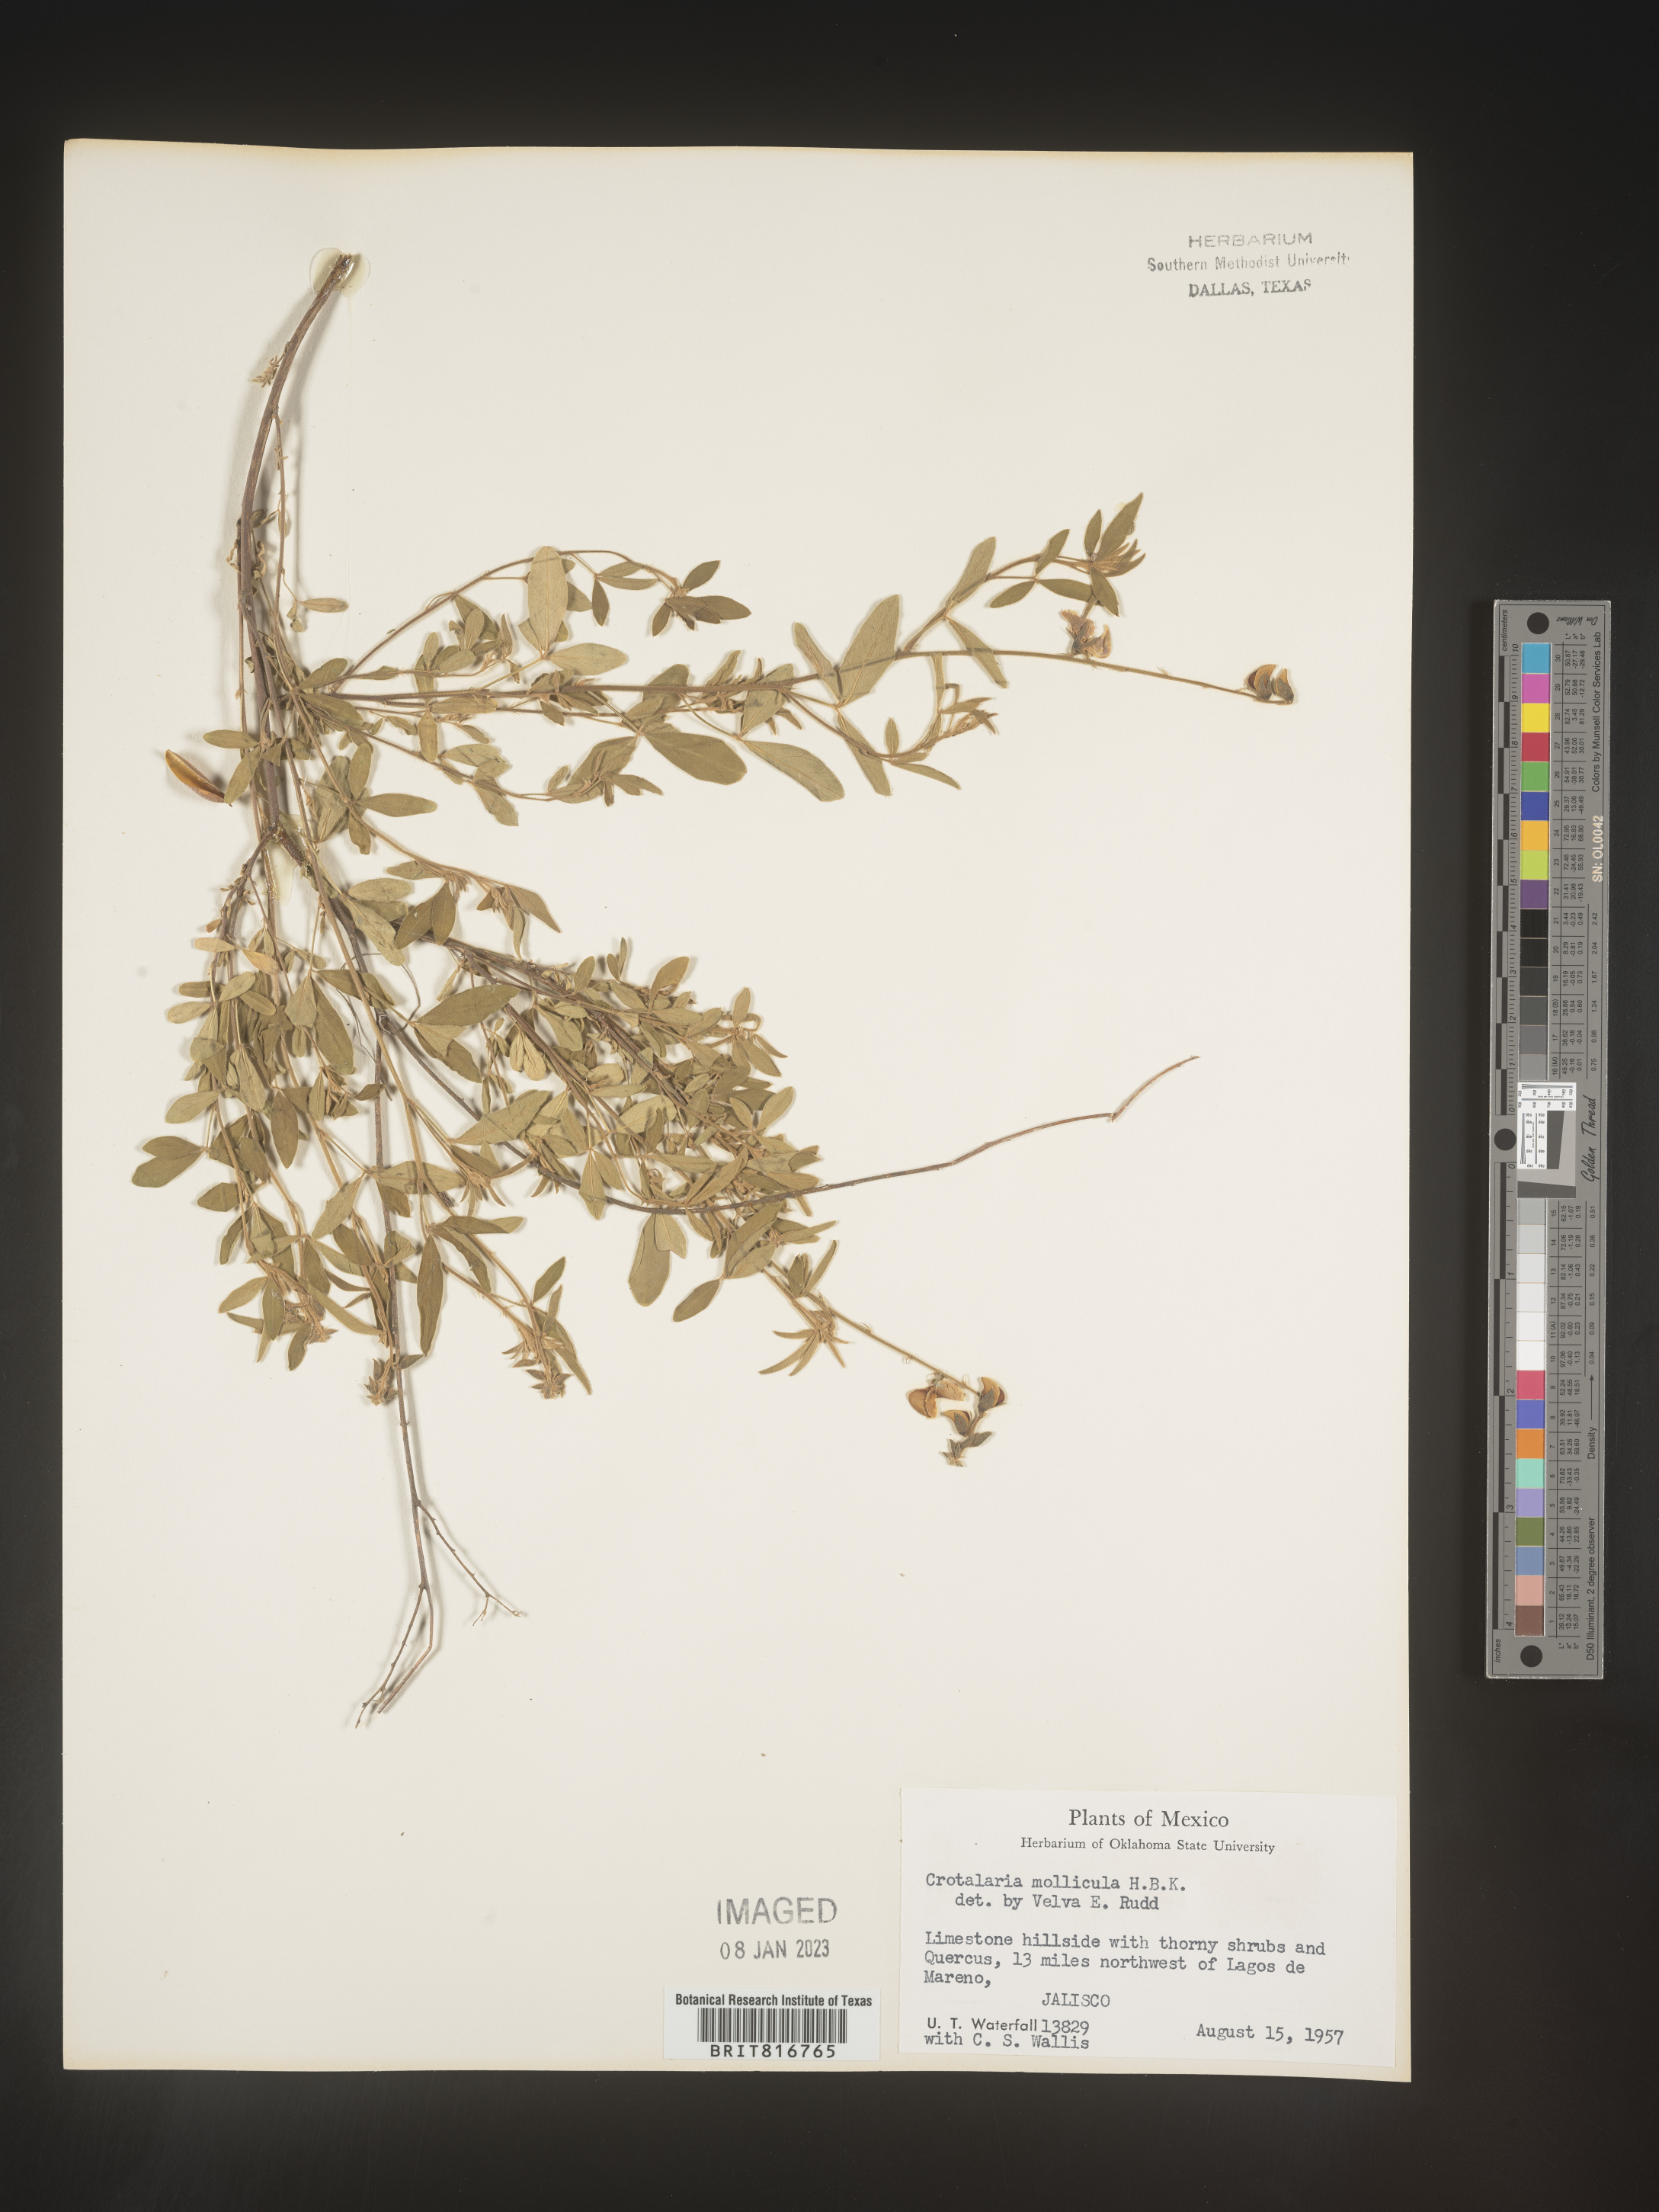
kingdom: Plantae
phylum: Tracheophyta
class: Magnoliopsida
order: Fabales
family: Fabaceae
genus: Crotalaria
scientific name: Crotalaria
